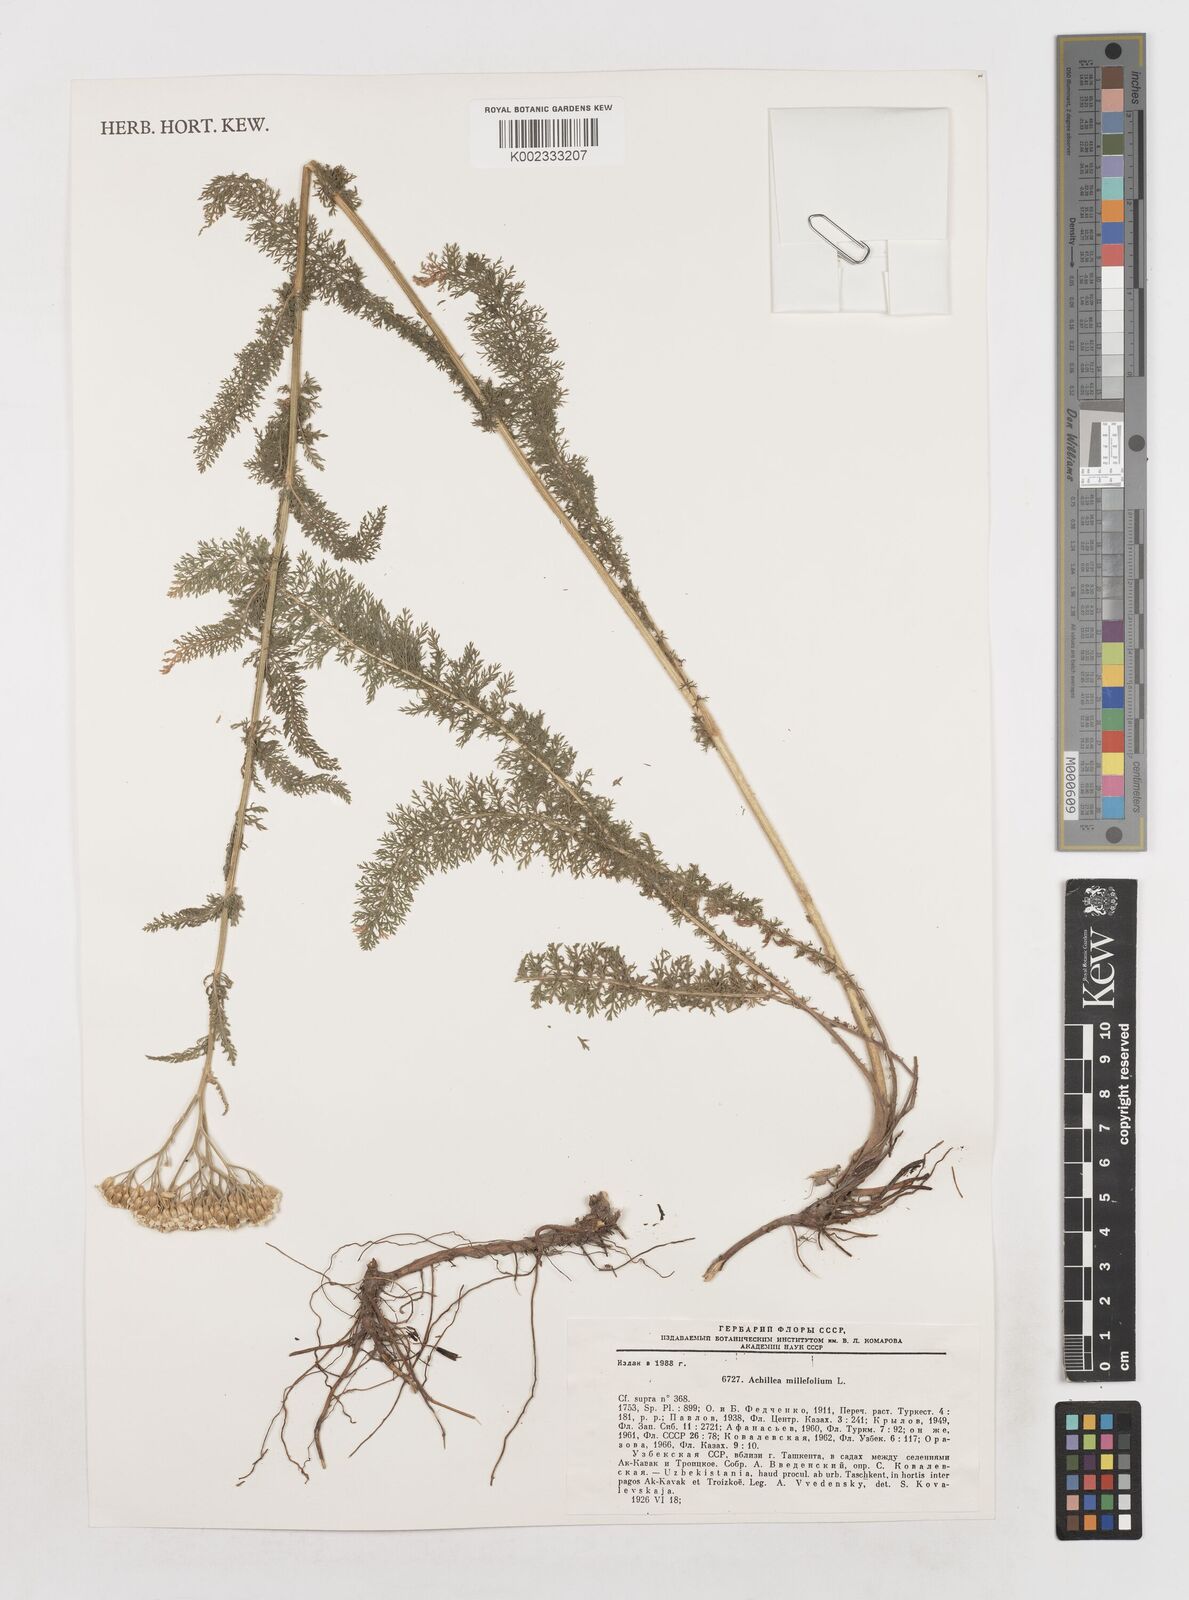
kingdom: Plantae
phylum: Tracheophyta
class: Magnoliopsida
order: Asterales
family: Asteraceae
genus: Achillea
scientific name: Achillea millefolium
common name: Yarrow
